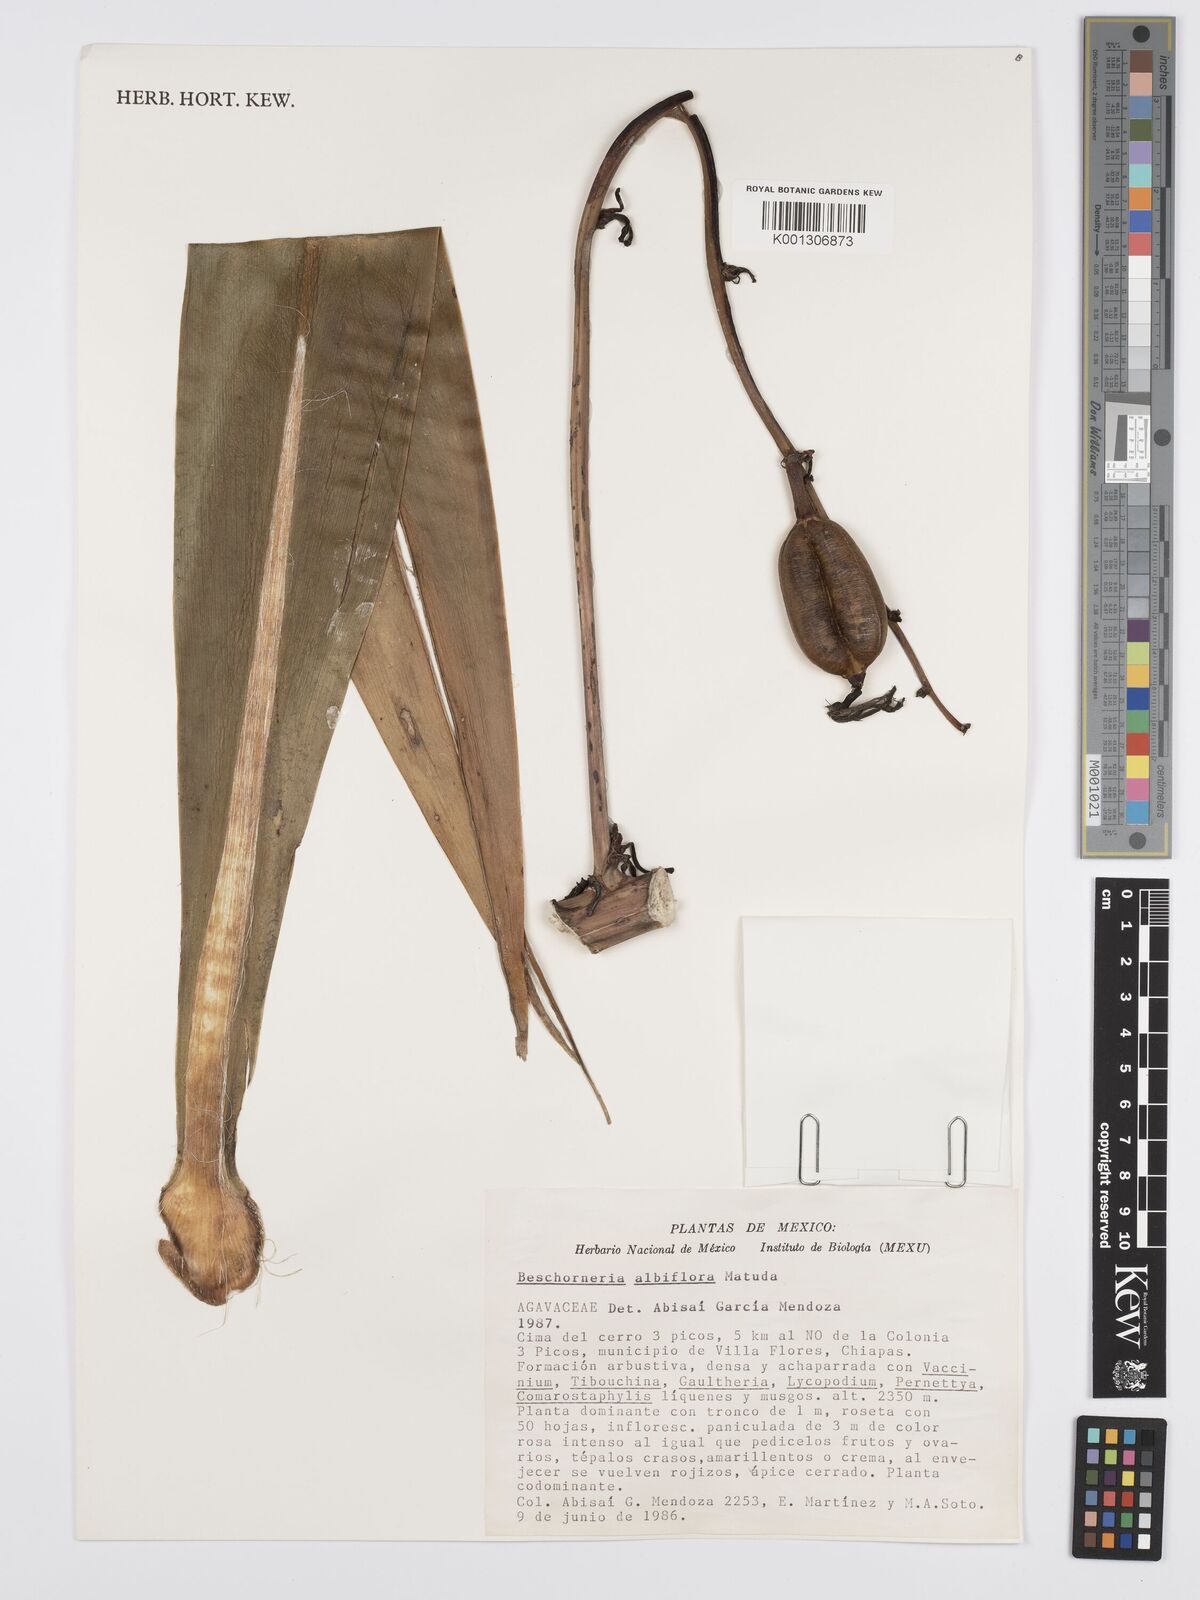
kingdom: Plantae
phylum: Tracheophyta
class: Liliopsida
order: Asparagales
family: Asparagaceae
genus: Beschorneria
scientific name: Beschorneria albiflora
